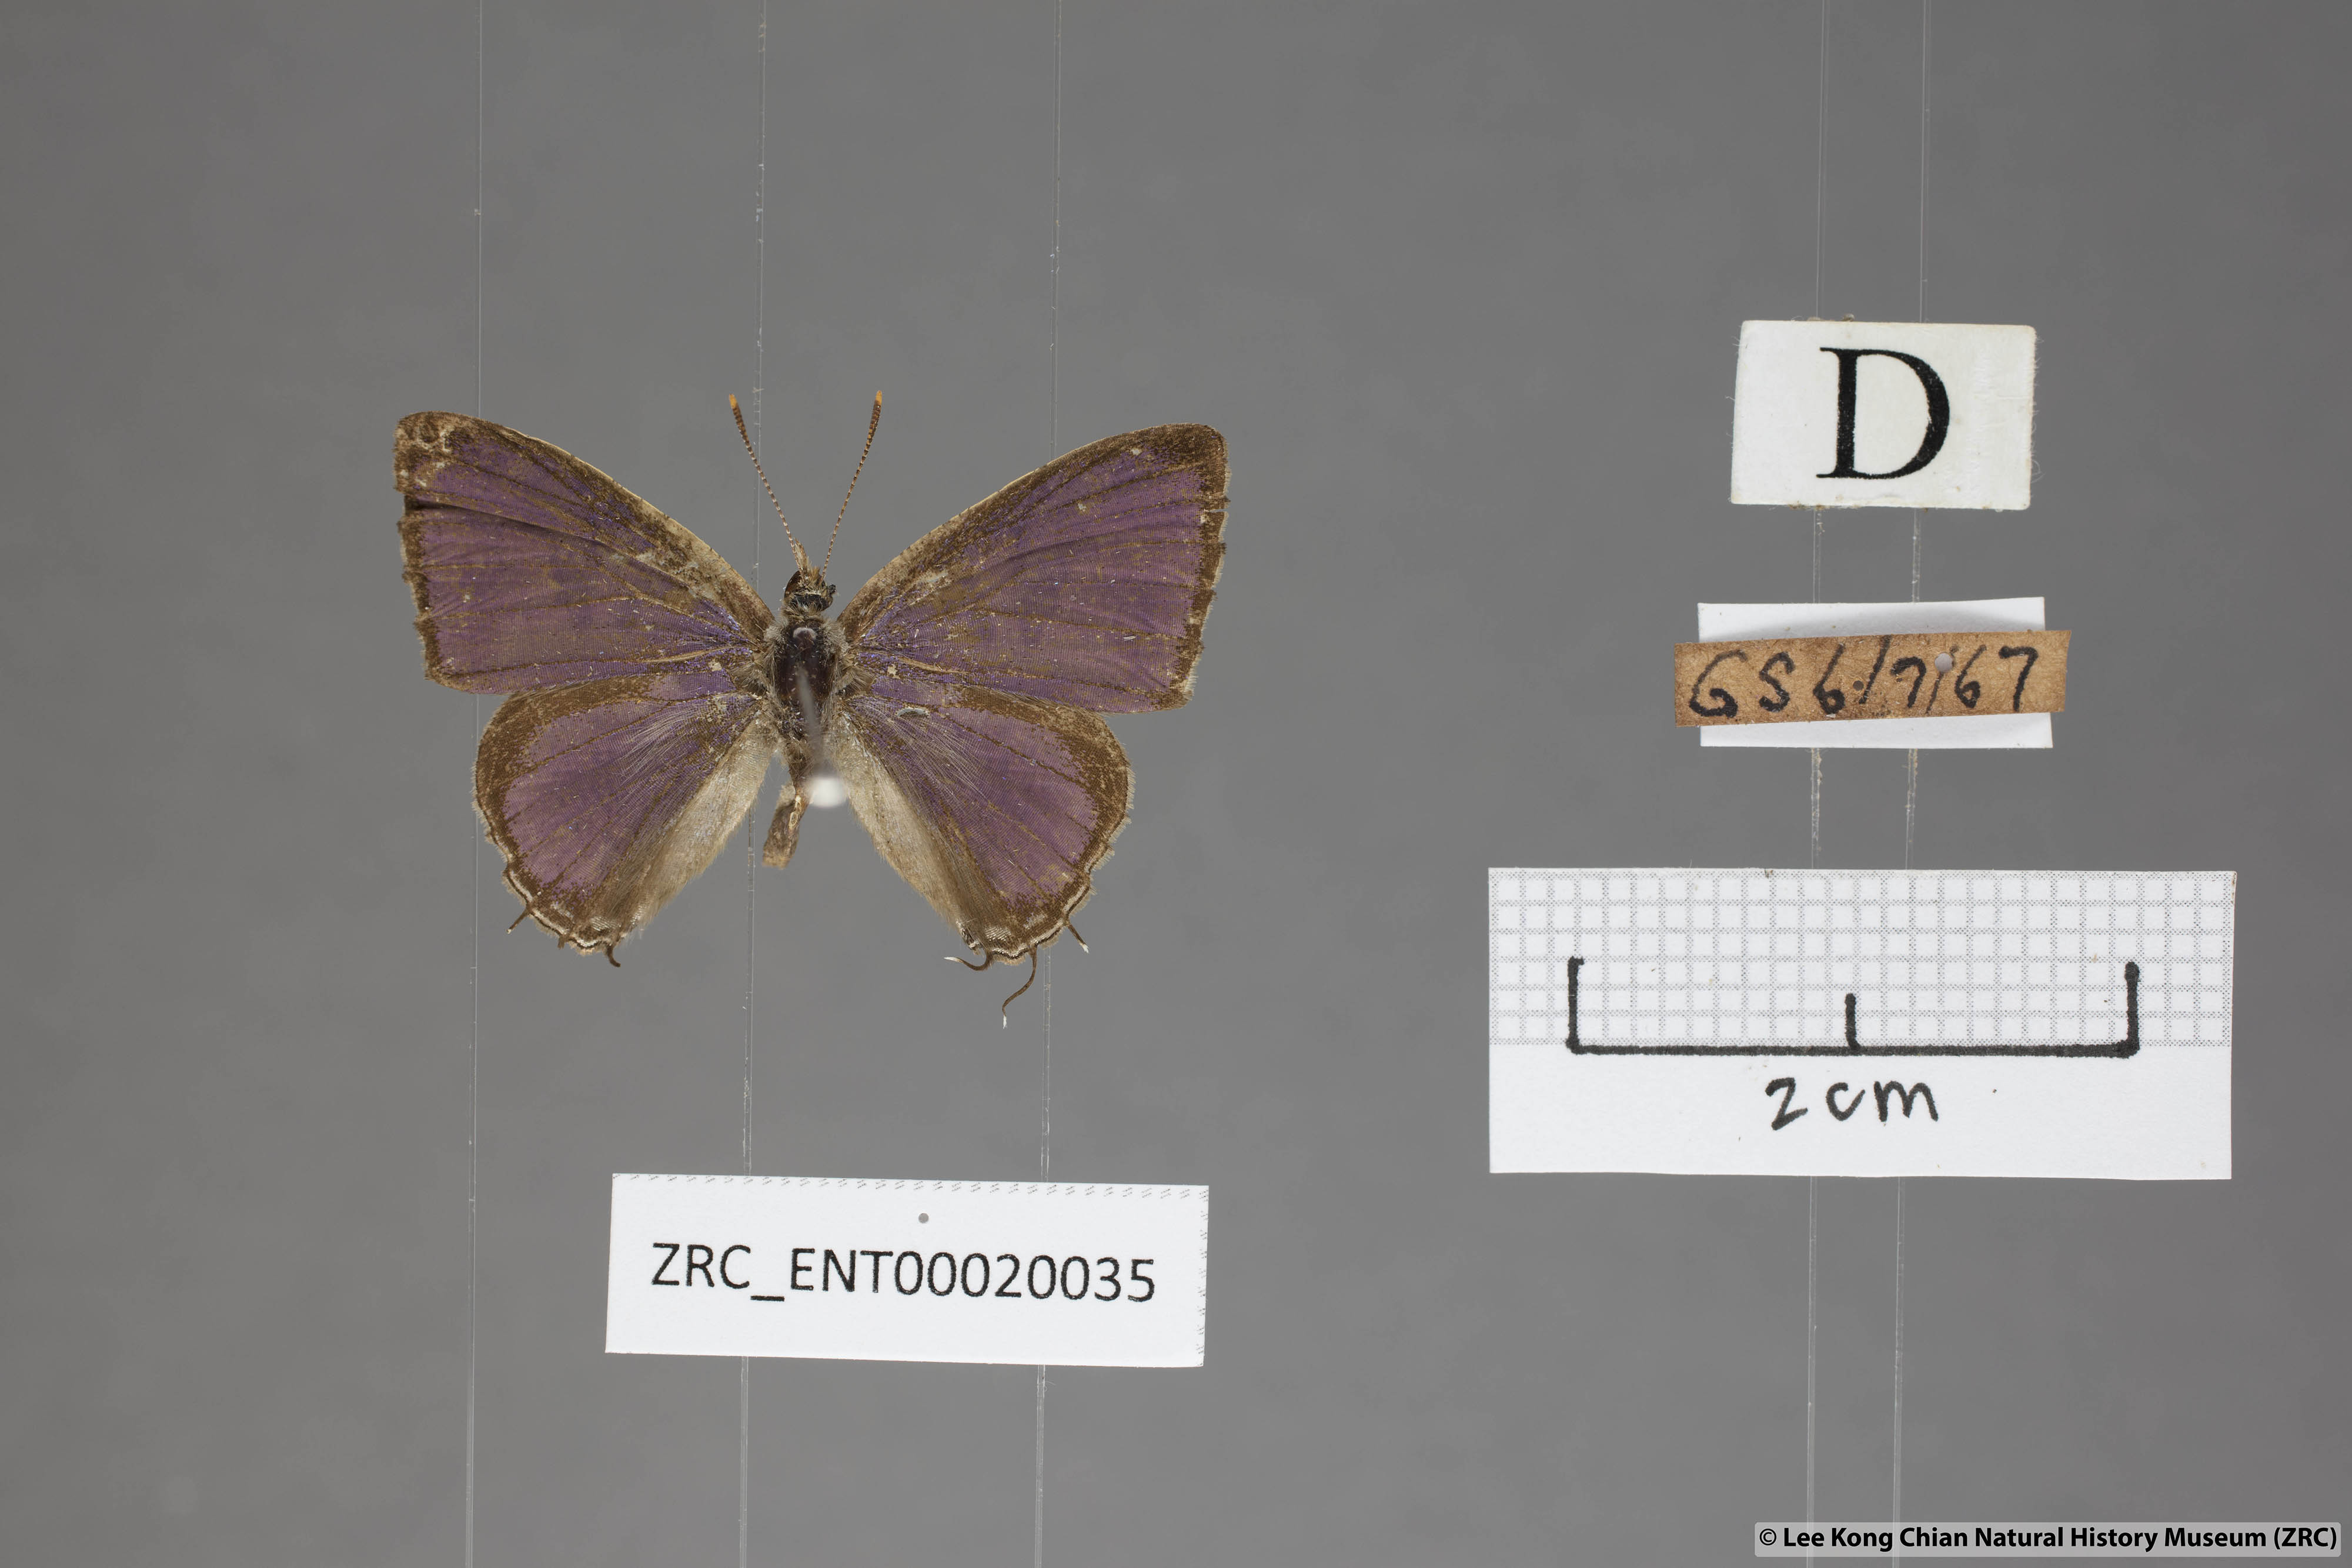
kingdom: Animalia
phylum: Arthropoda
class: Insecta
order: Lepidoptera
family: Lycaenidae
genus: Catapaecilma
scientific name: Catapaecilma major
